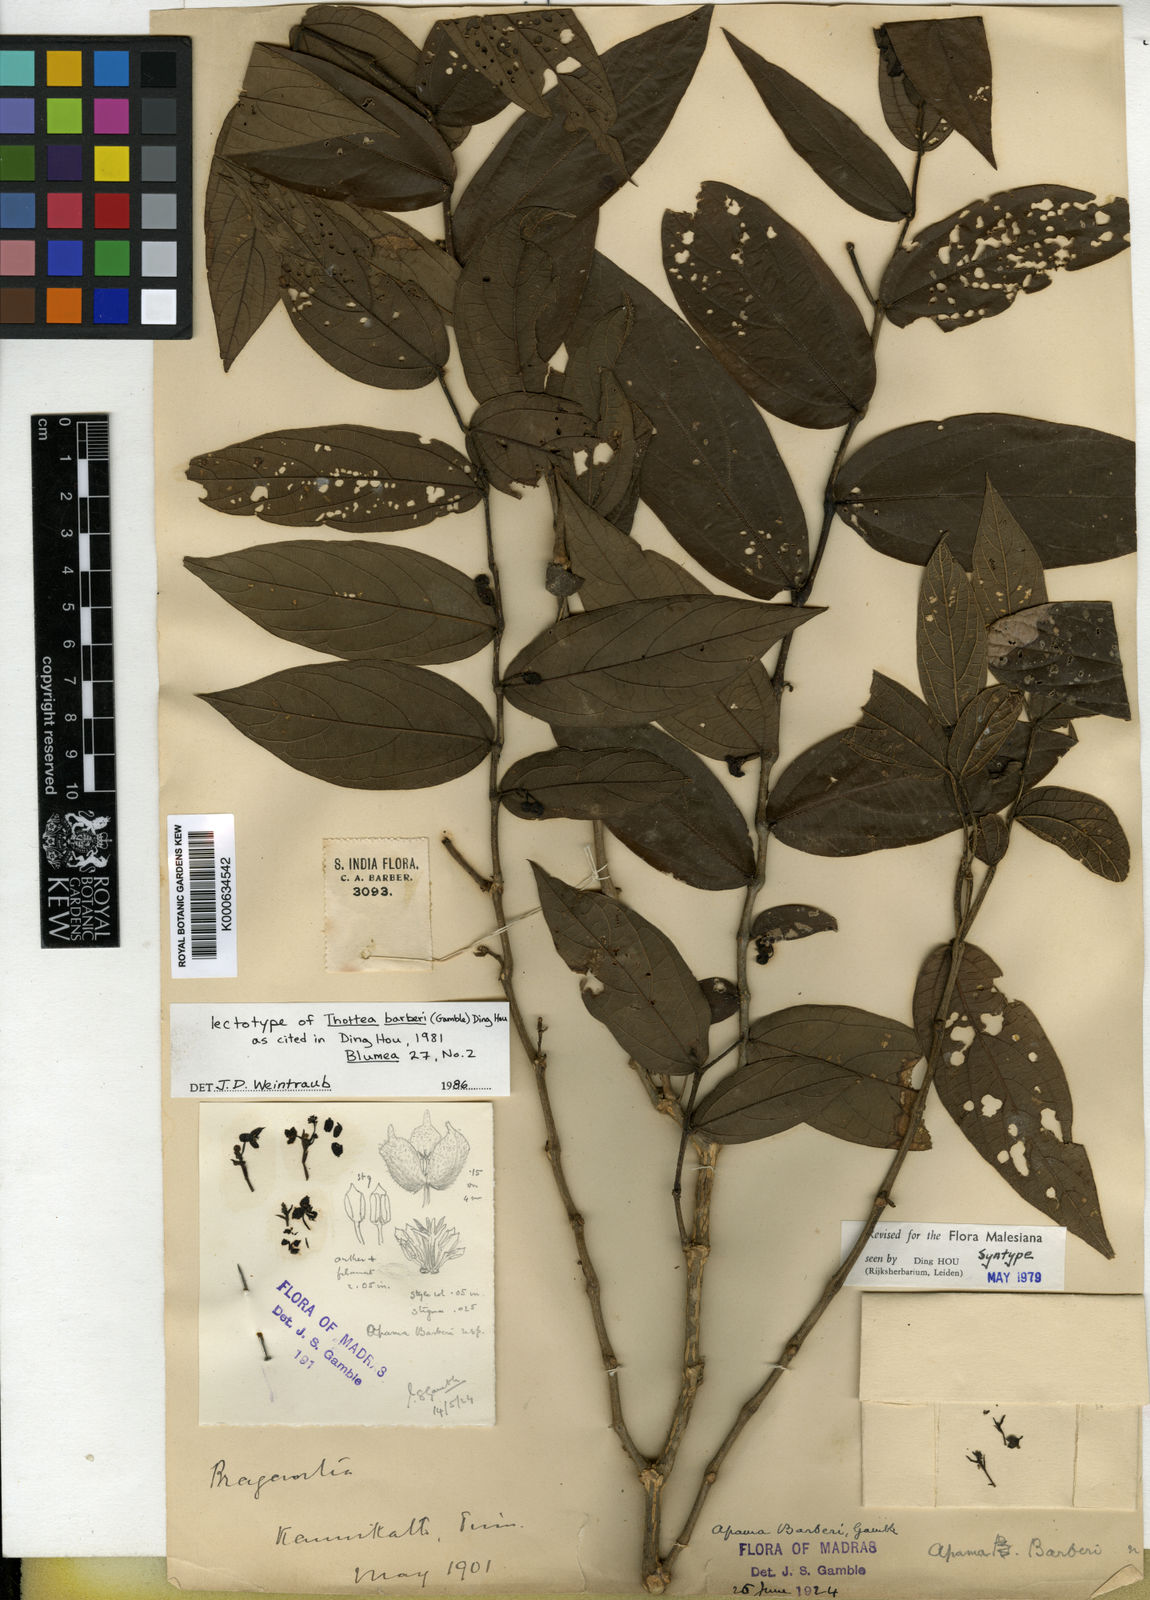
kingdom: Plantae
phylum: Tracheophyta
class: Magnoliopsida
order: Piperales
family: Aristolochiaceae
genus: Thottea
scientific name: Thottea barberi
